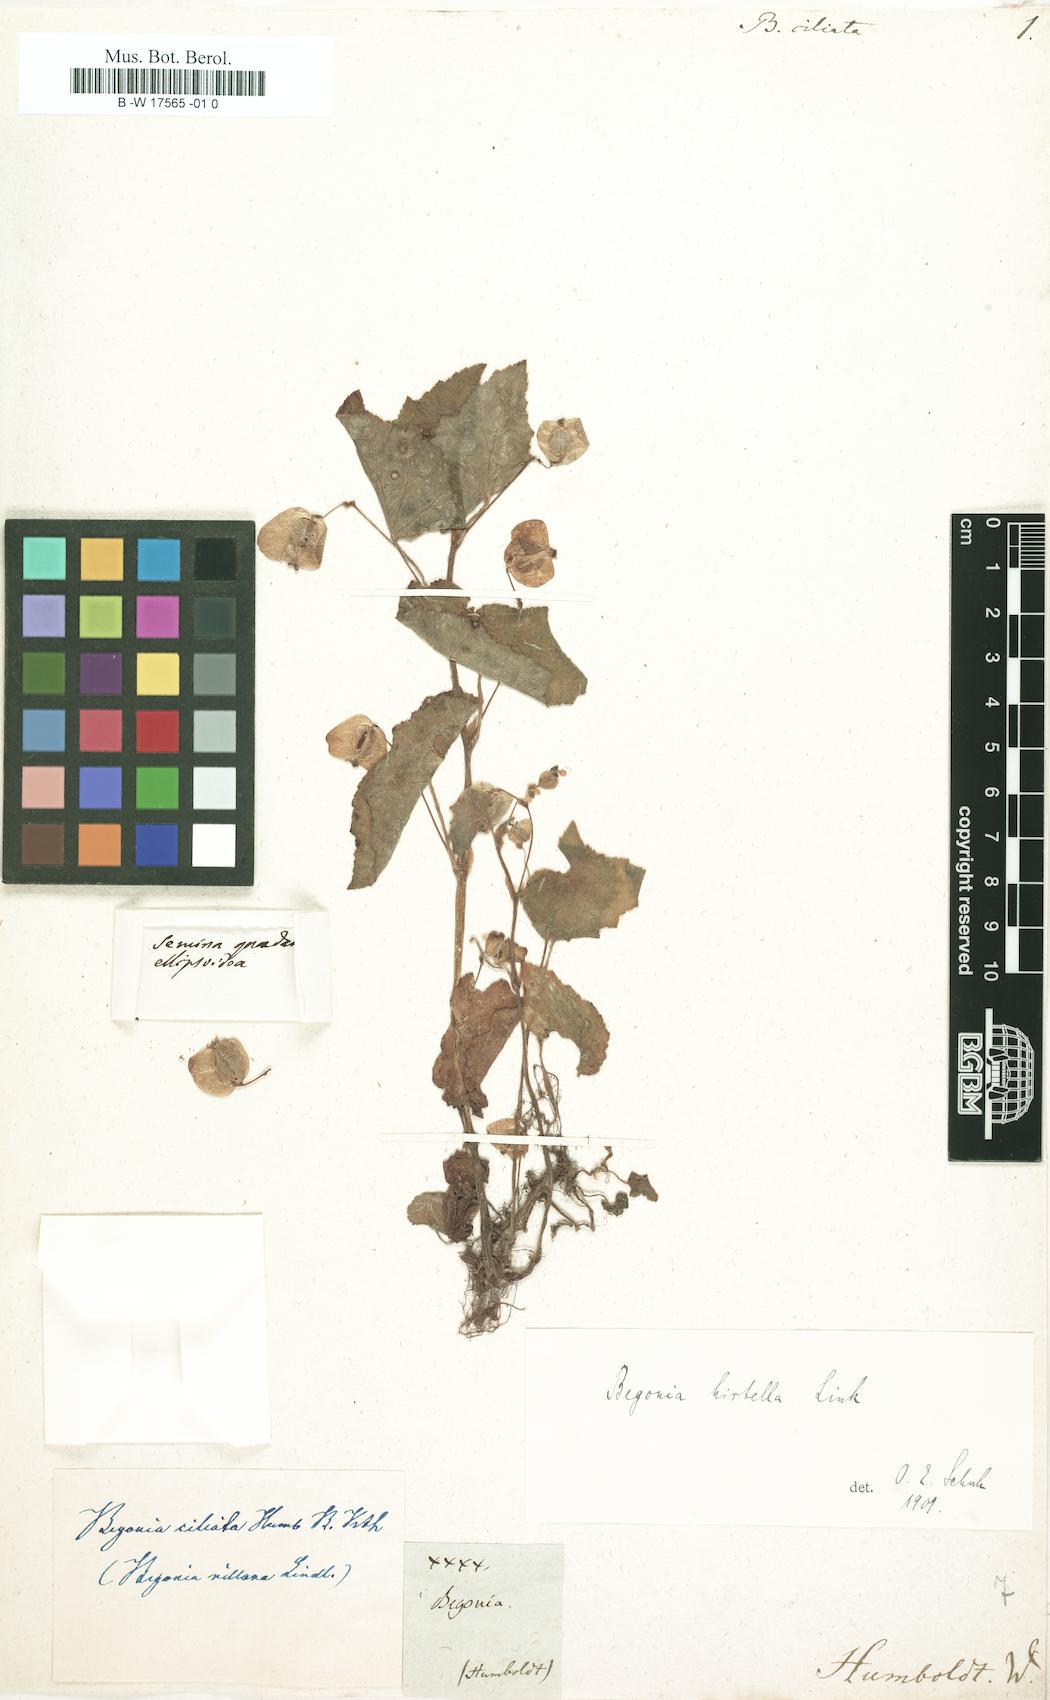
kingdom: Plantae
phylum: Tracheophyta
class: Magnoliopsida
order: Cucurbitales
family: Begoniaceae
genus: Begonia
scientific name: Begonia hirtella
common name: Brazilian begonia
